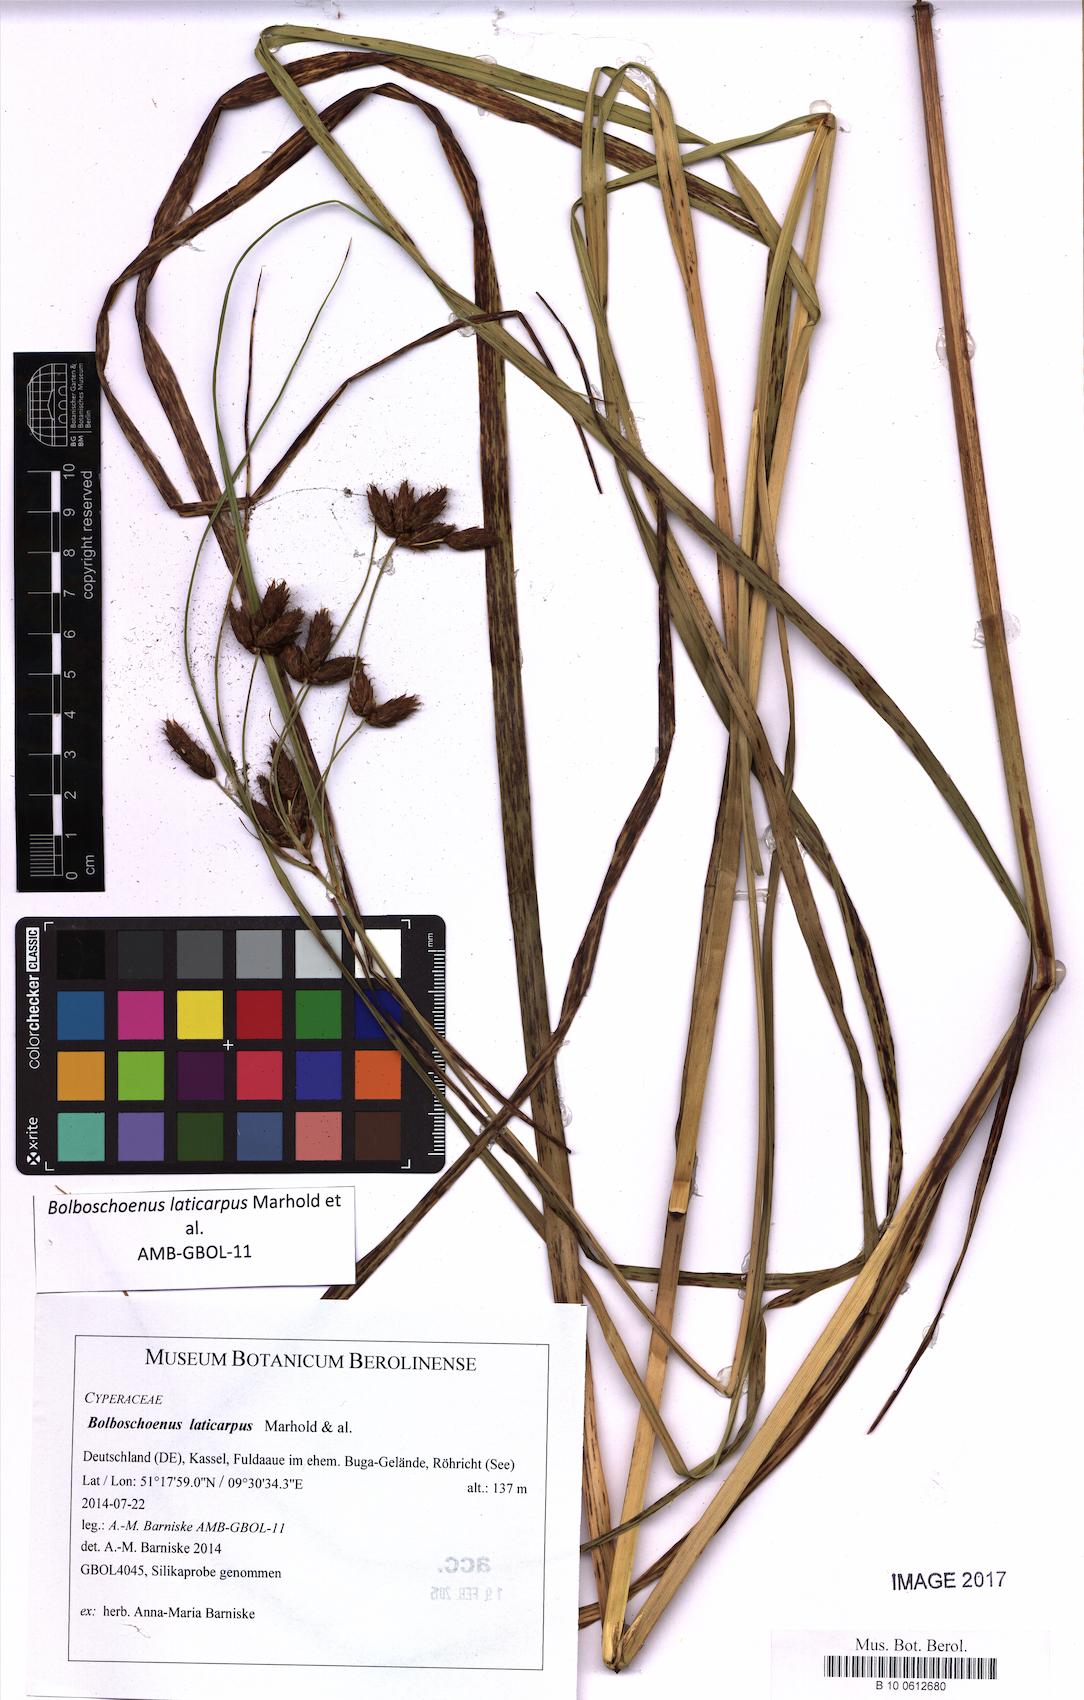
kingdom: Plantae
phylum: Tracheophyta
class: Liliopsida
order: Poales
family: Cyperaceae
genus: Bolboschoenus
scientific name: Bolboschoenus laticarpus
